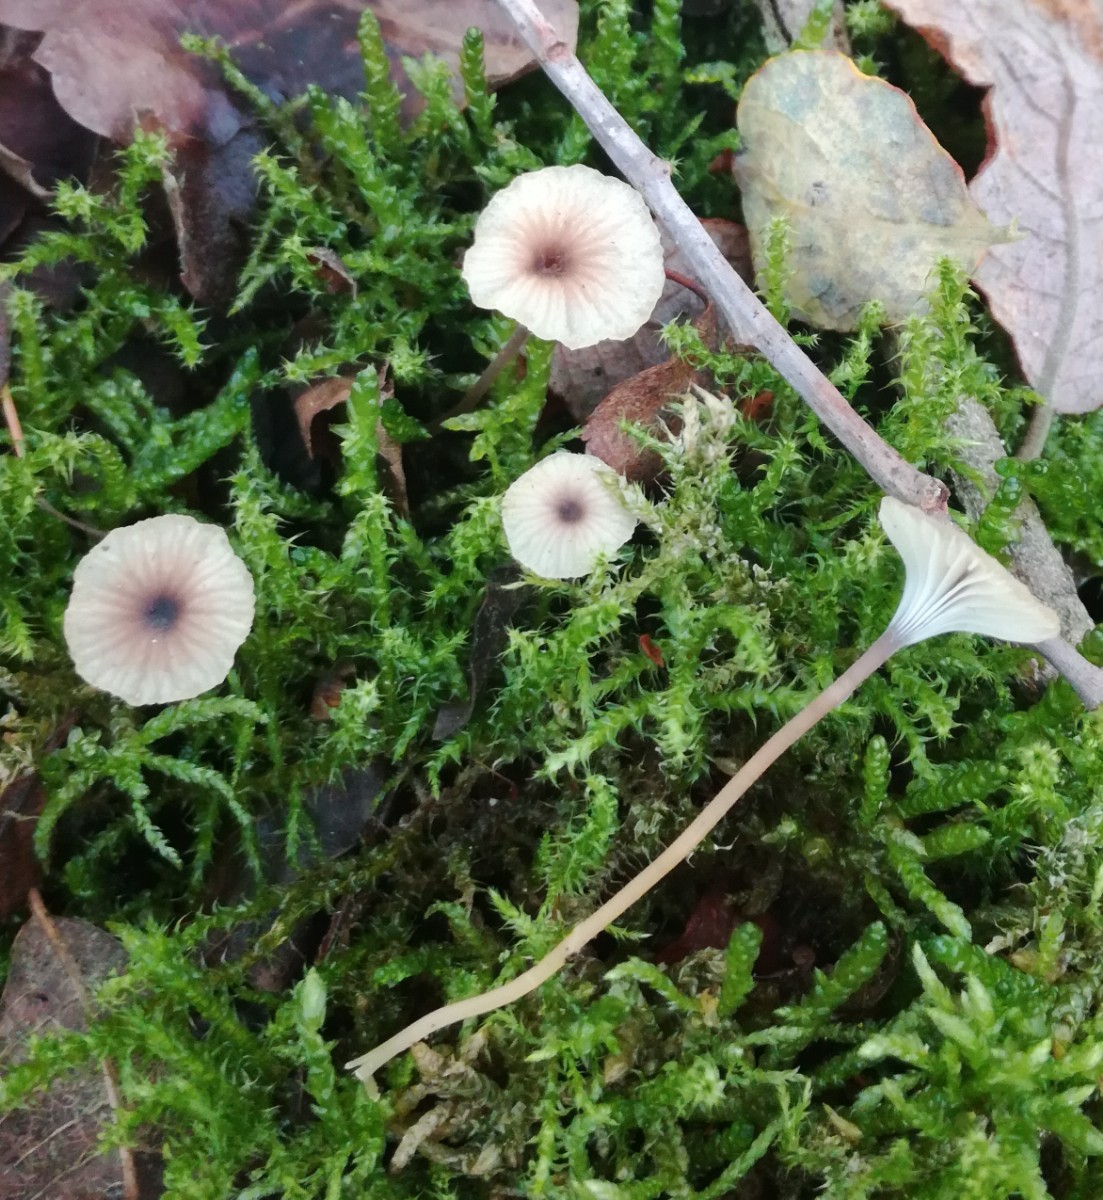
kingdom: Fungi
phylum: Basidiomycota
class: Agaricomycetes
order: Hymenochaetales
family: Rickenellaceae
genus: Rickenella
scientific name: Rickenella swartzii
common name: finstokket mosnavlehat
